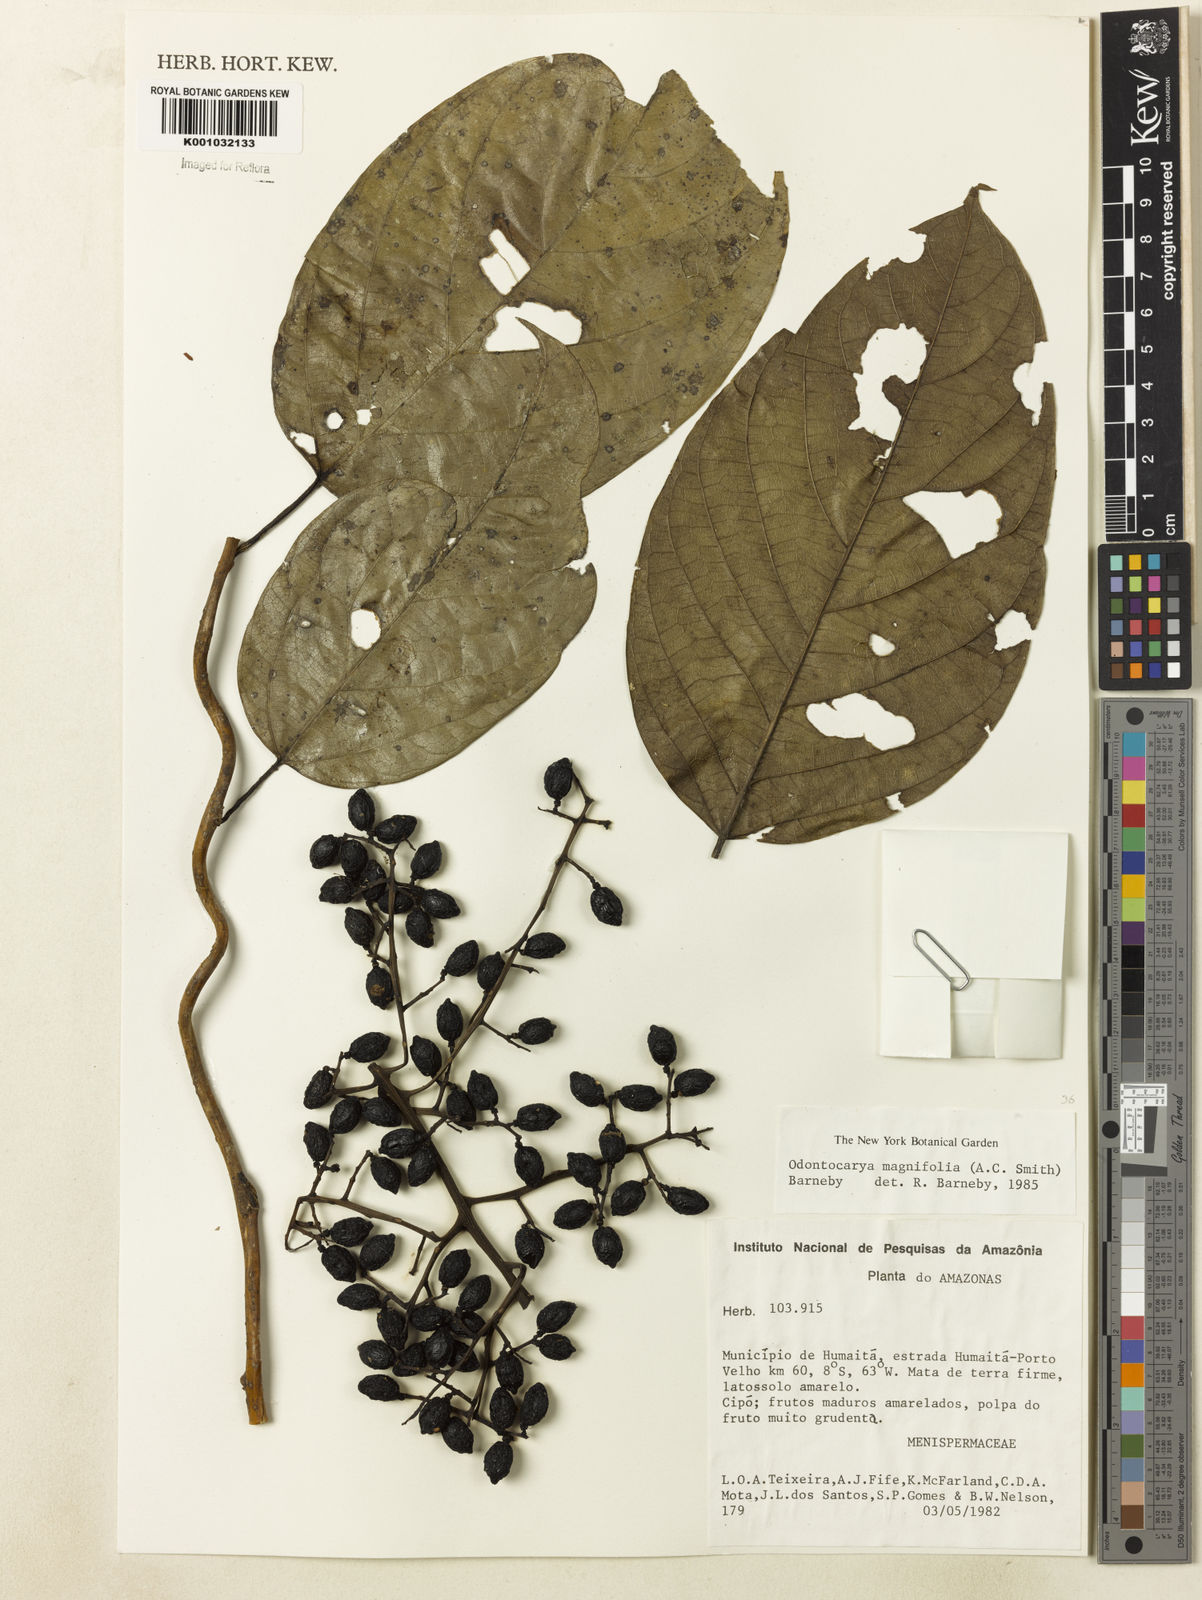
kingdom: Plantae
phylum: Tracheophyta
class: Magnoliopsida
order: Ranunculales
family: Menispermaceae
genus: Odontocarya
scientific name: Odontocarya magnifolia
